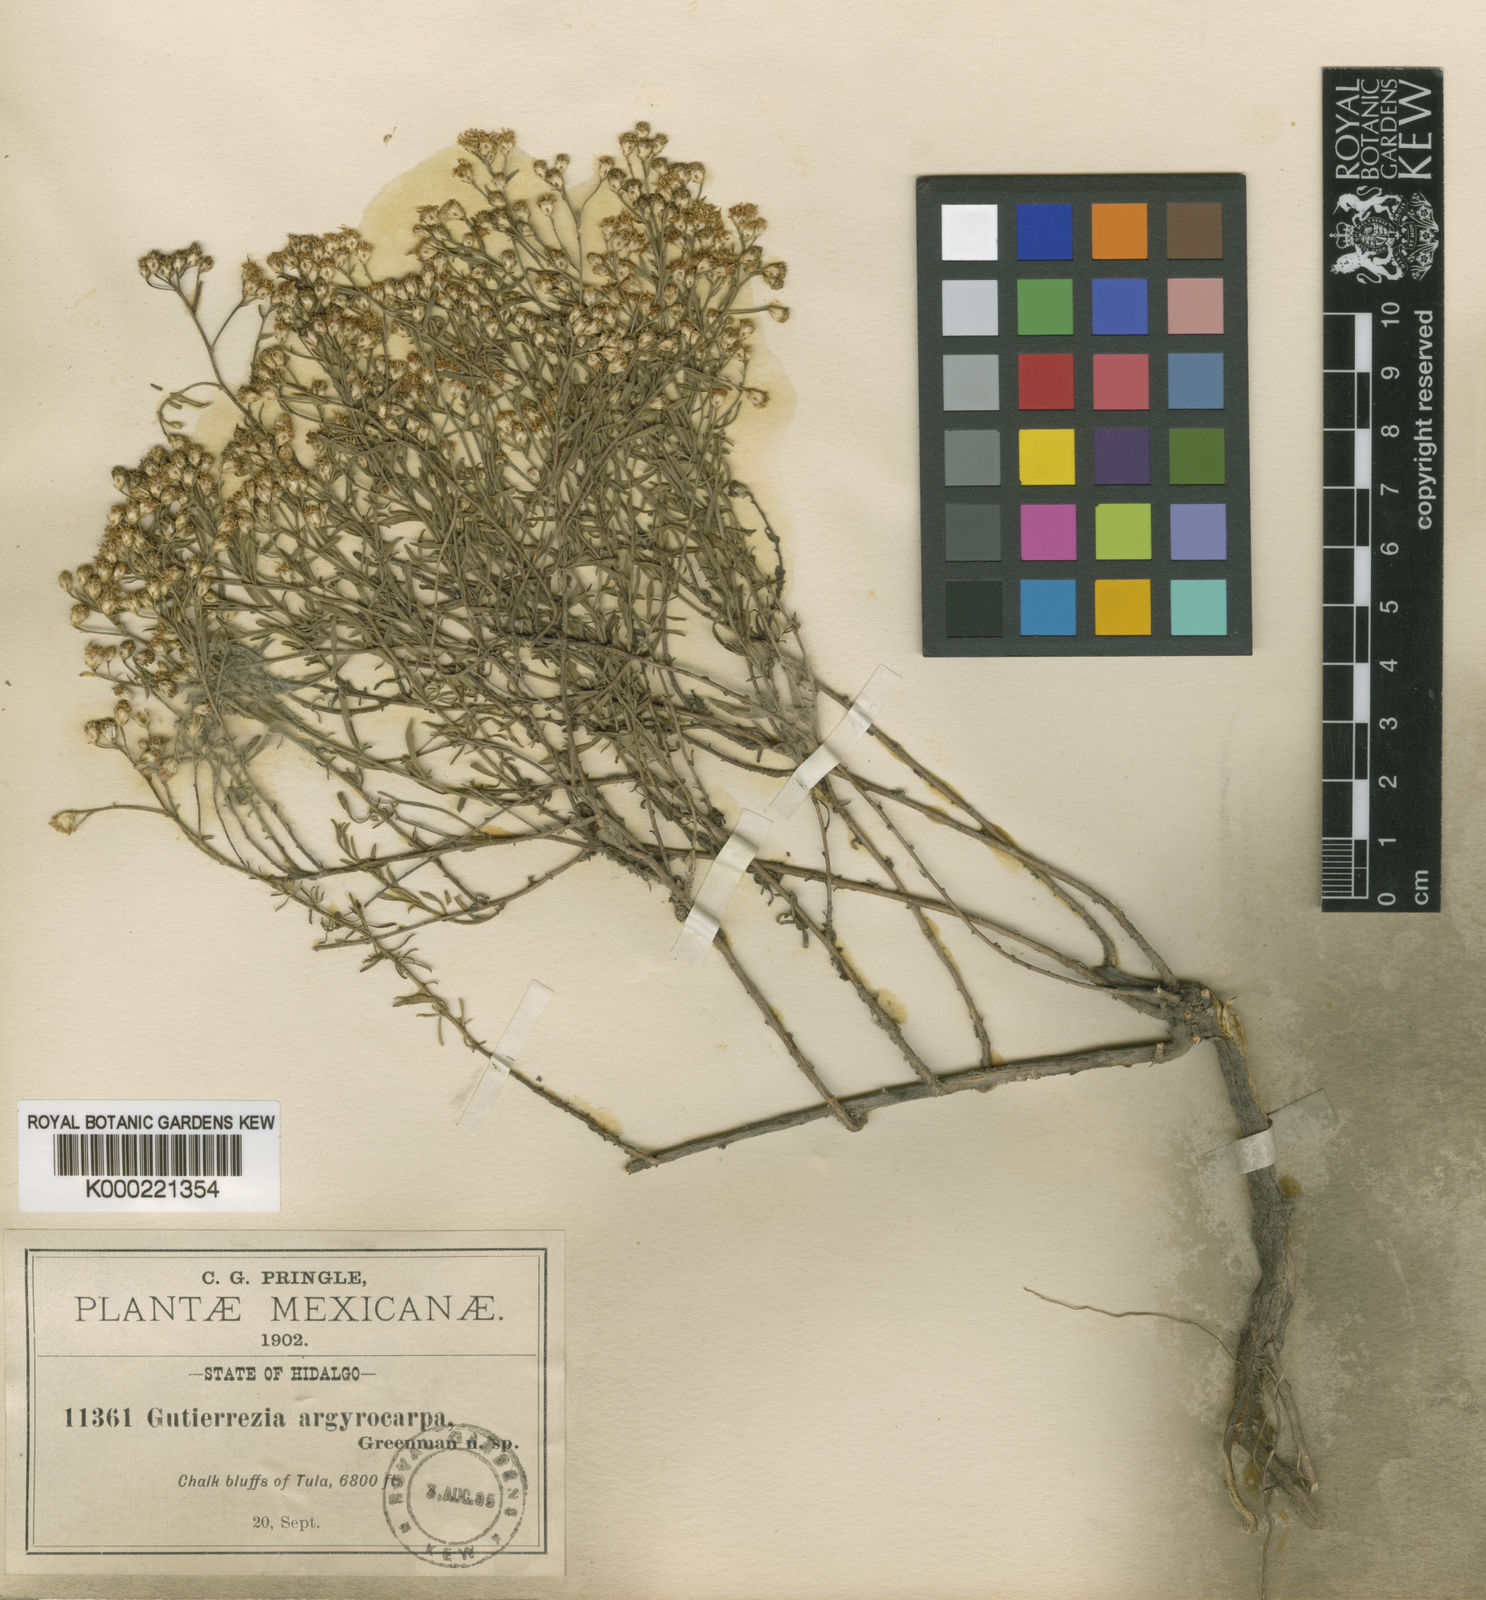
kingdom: Plantae
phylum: Tracheophyta
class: Magnoliopsida
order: Asterales
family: Asteraceae
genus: Gutierrezia
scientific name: Gutierrezia argyrocarpa
